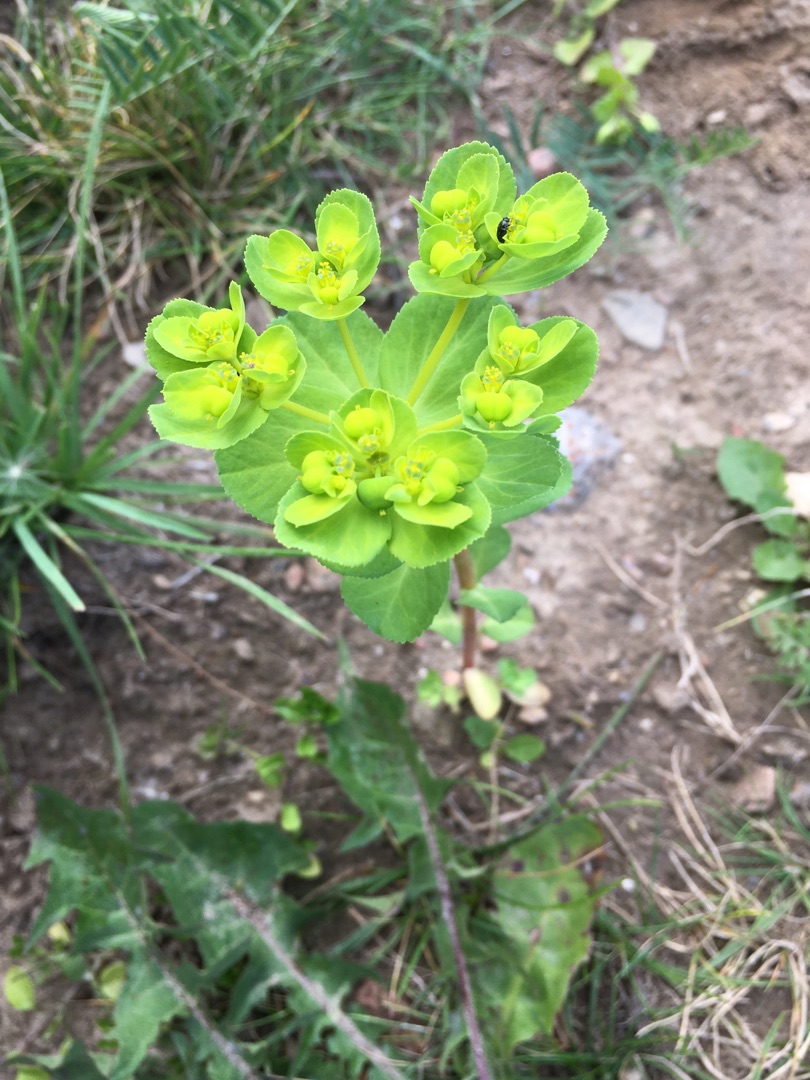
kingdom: Plantae
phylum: Tracheophyta
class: Magnoliopsida
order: Malpighiales
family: Euphorbiaceae
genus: Euphorbia
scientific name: Euphorbia helioscopia
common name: Skærm-vortemælk
